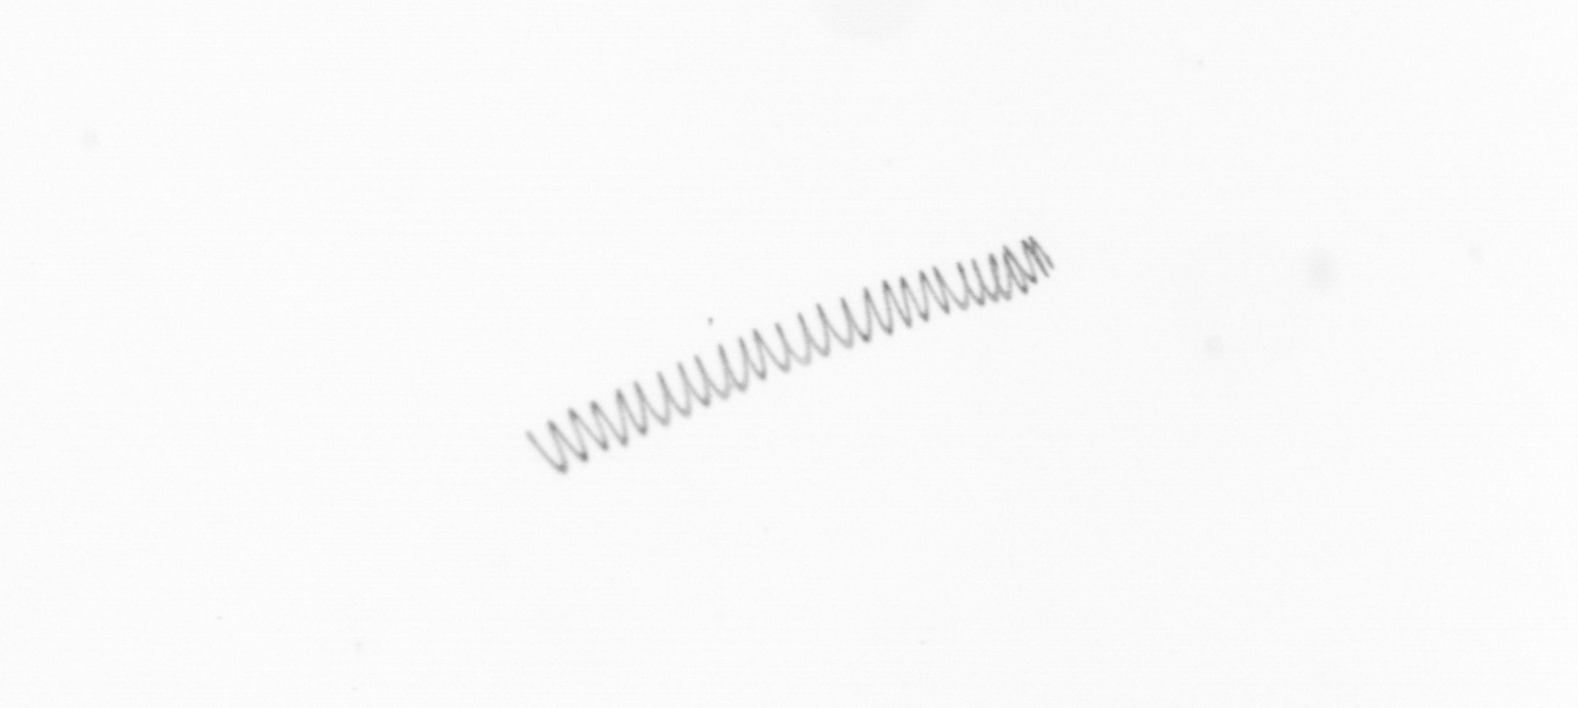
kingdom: Chromista
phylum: Ochrophyta
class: Bacillariophyceae
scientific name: Bacillariophyceae
